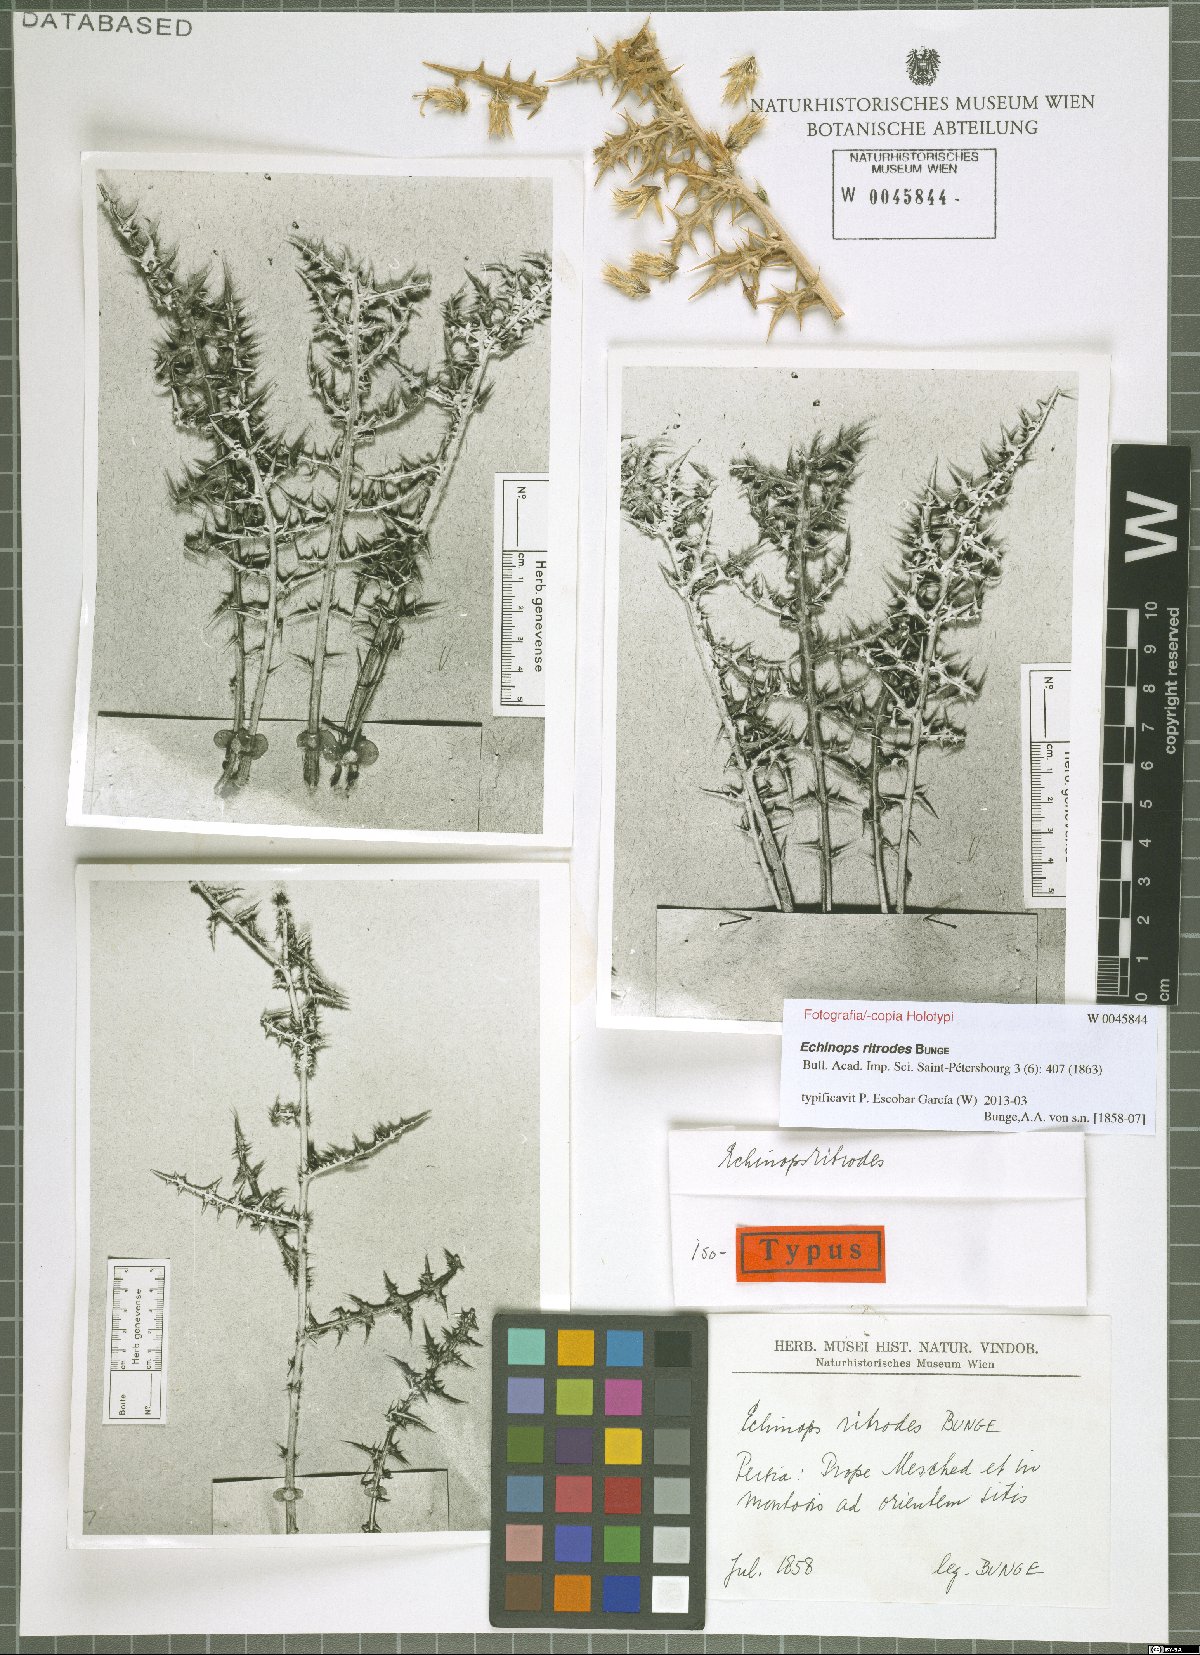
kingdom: Plantae
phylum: Tracheophyta
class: Magnoliopsida
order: Asterales
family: Asteraceae
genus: Echinops
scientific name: Echinops ritrodes
